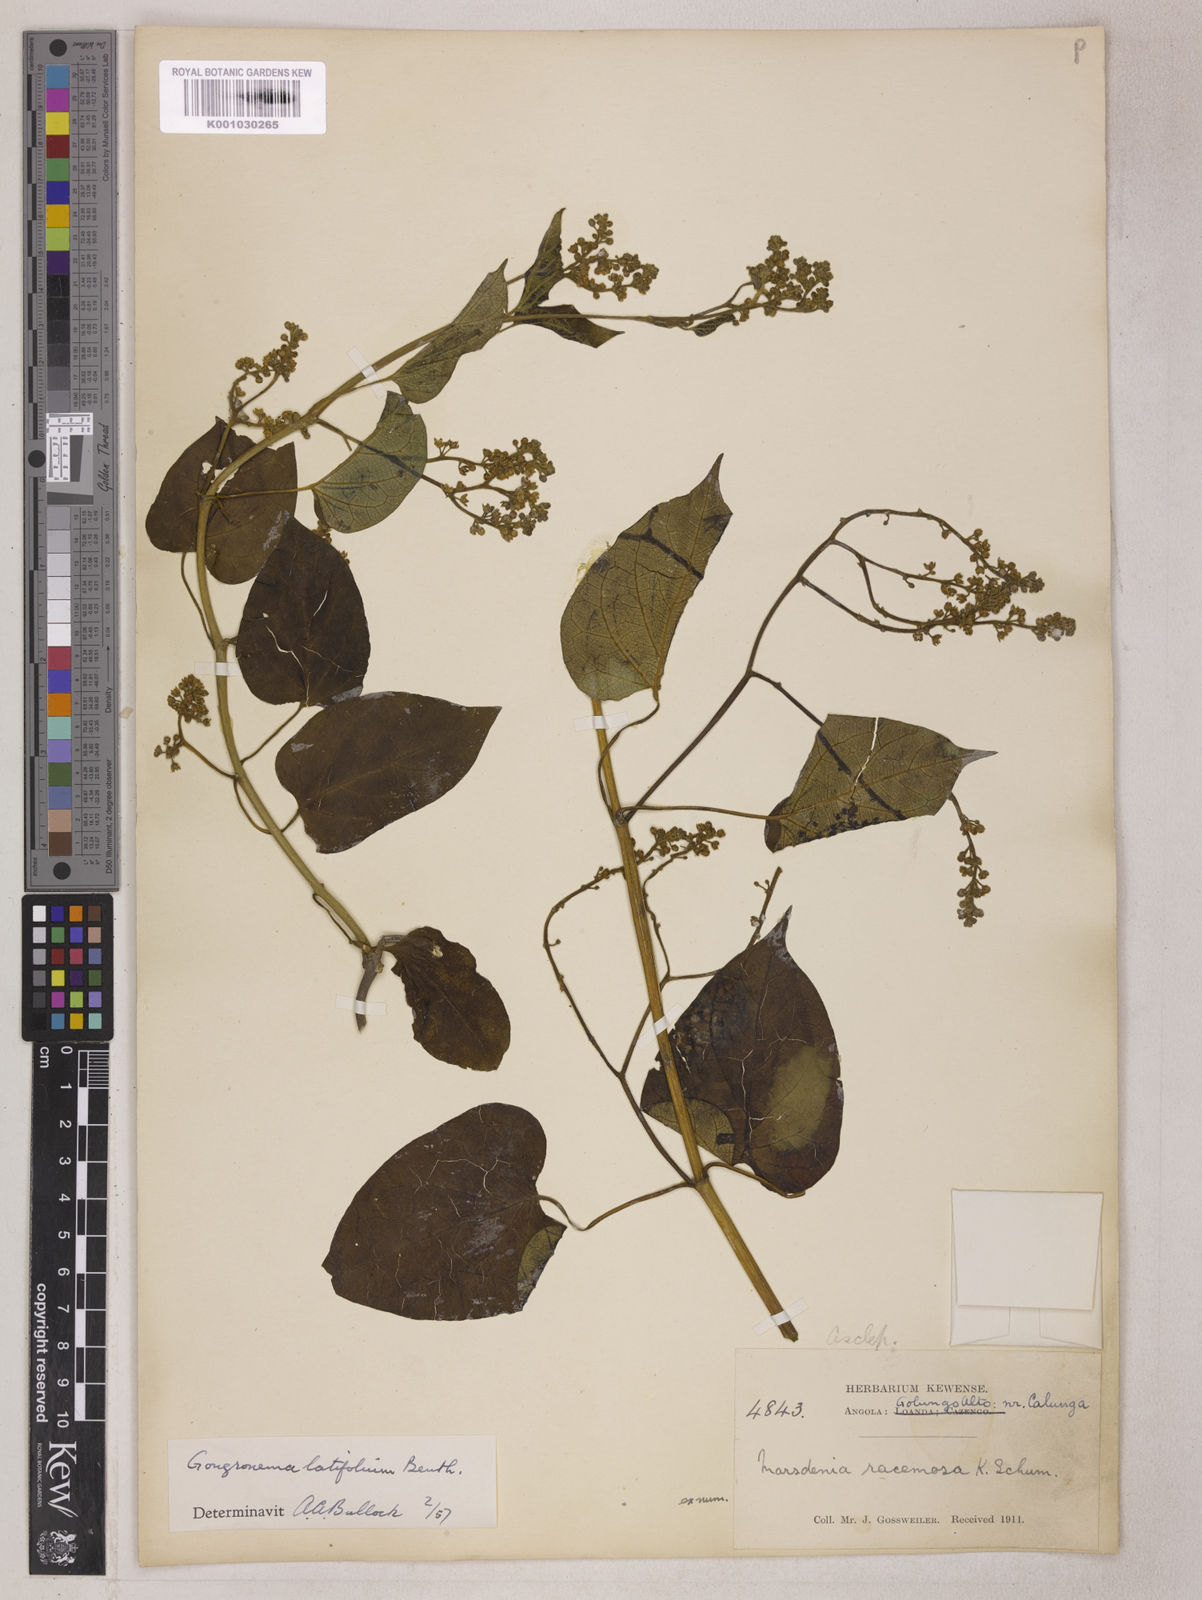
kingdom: Plantae
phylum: Tracheophyta
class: Magnoliopsida
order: Gentianales
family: Apocynaceae
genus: Gongronemopsis
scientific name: Gongronemopsis latifolia
